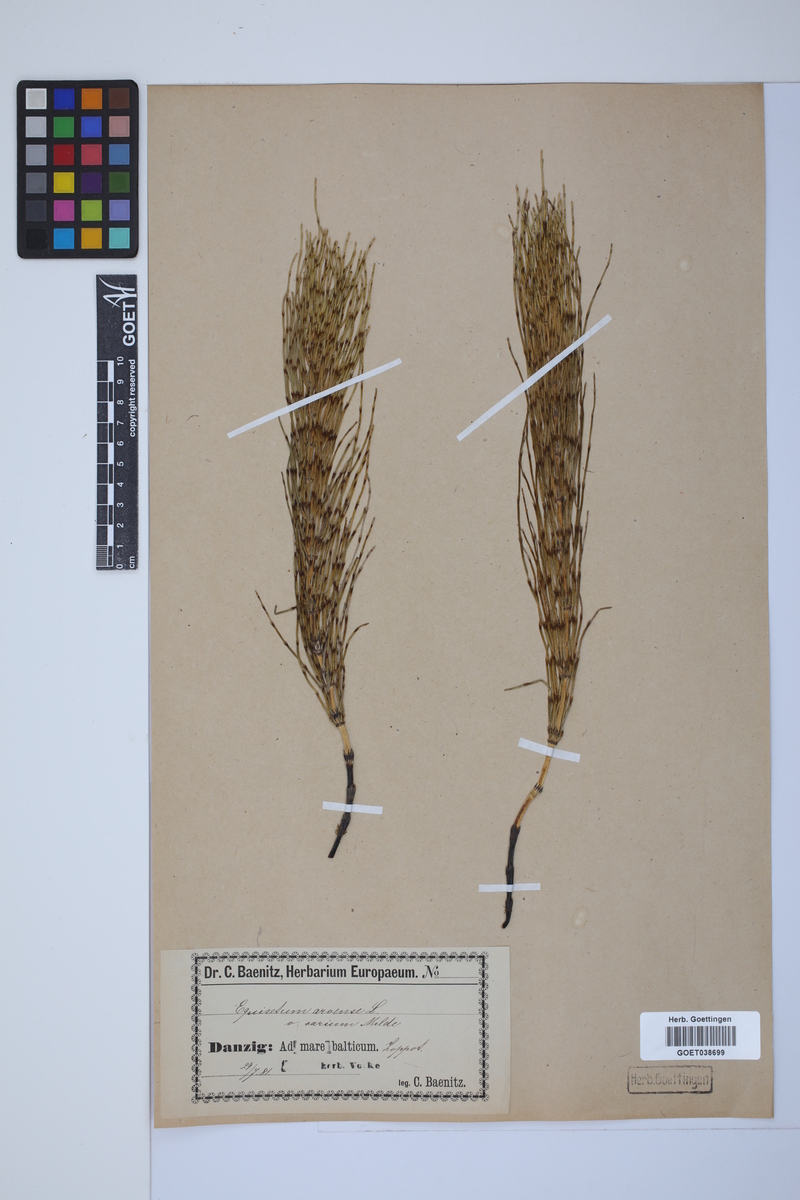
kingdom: Plantae
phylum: Tracheophyta
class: Polypodiopsida
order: Equisetales
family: Equisetaceae
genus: Equisetum
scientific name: Equisetum litorale
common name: Littoral horsetail
